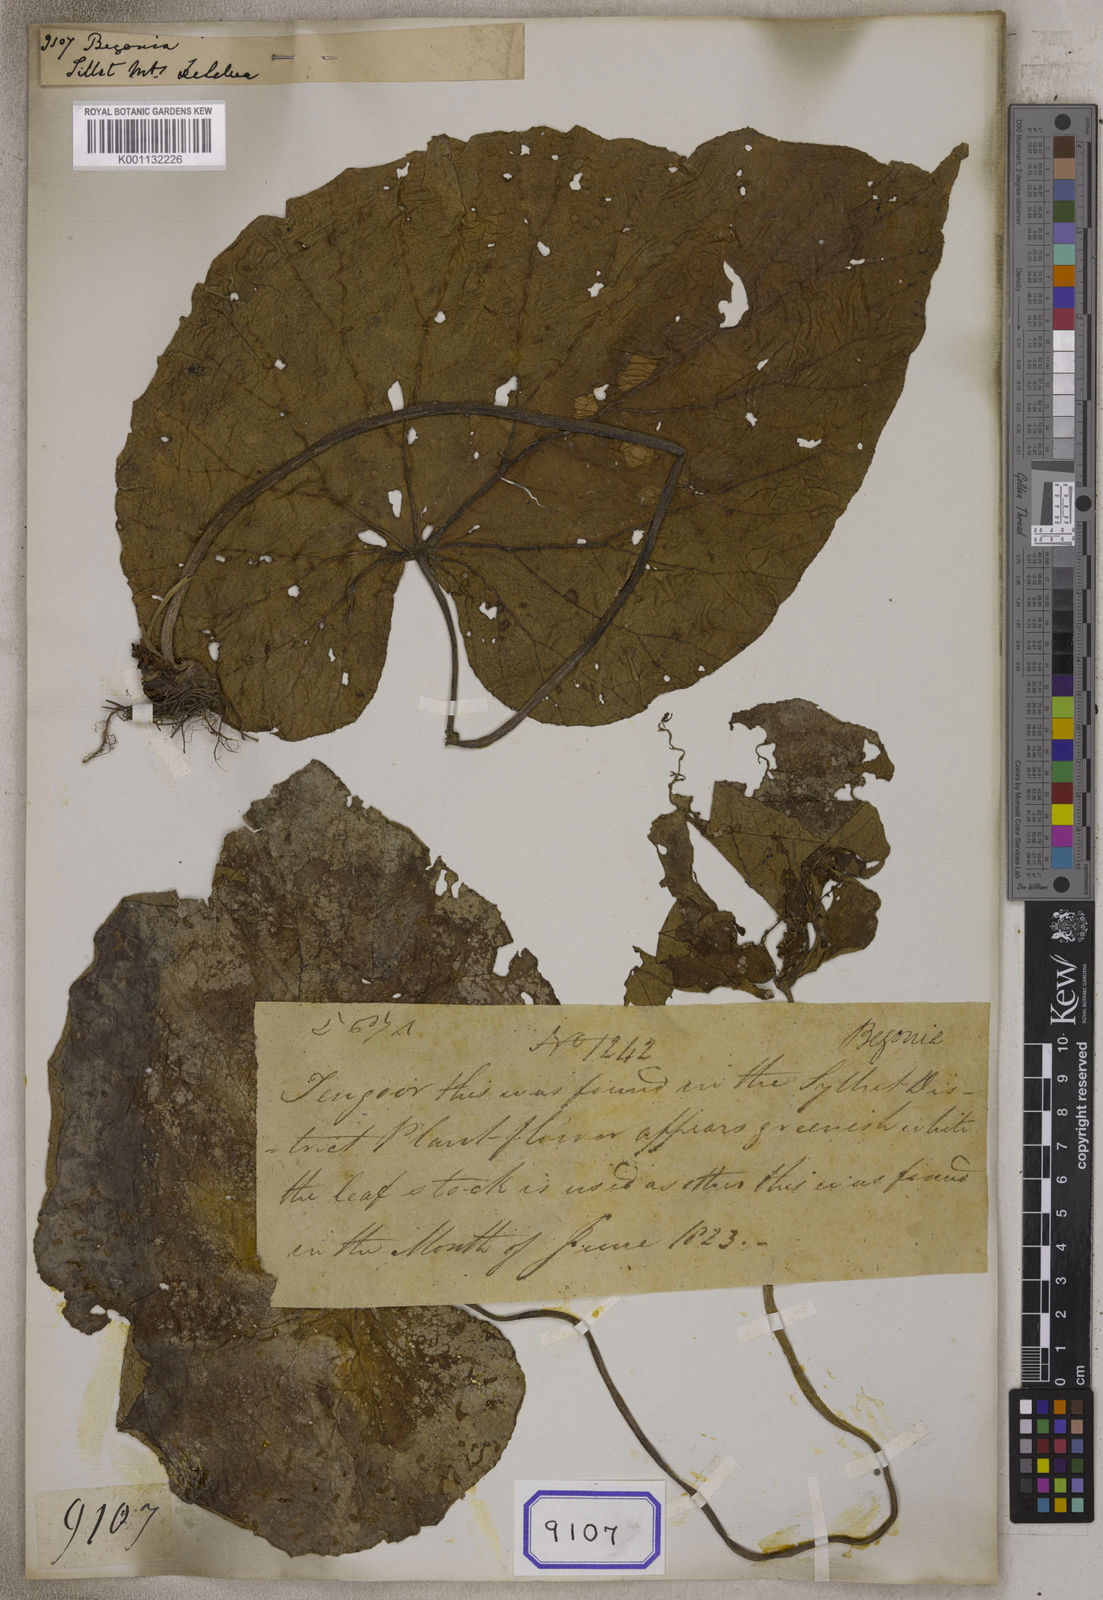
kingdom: Plantae
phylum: Tracheophyta
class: Magnoliopsida
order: Cucurbitales
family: Begoniaceae
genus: Begonia
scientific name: Begonia
